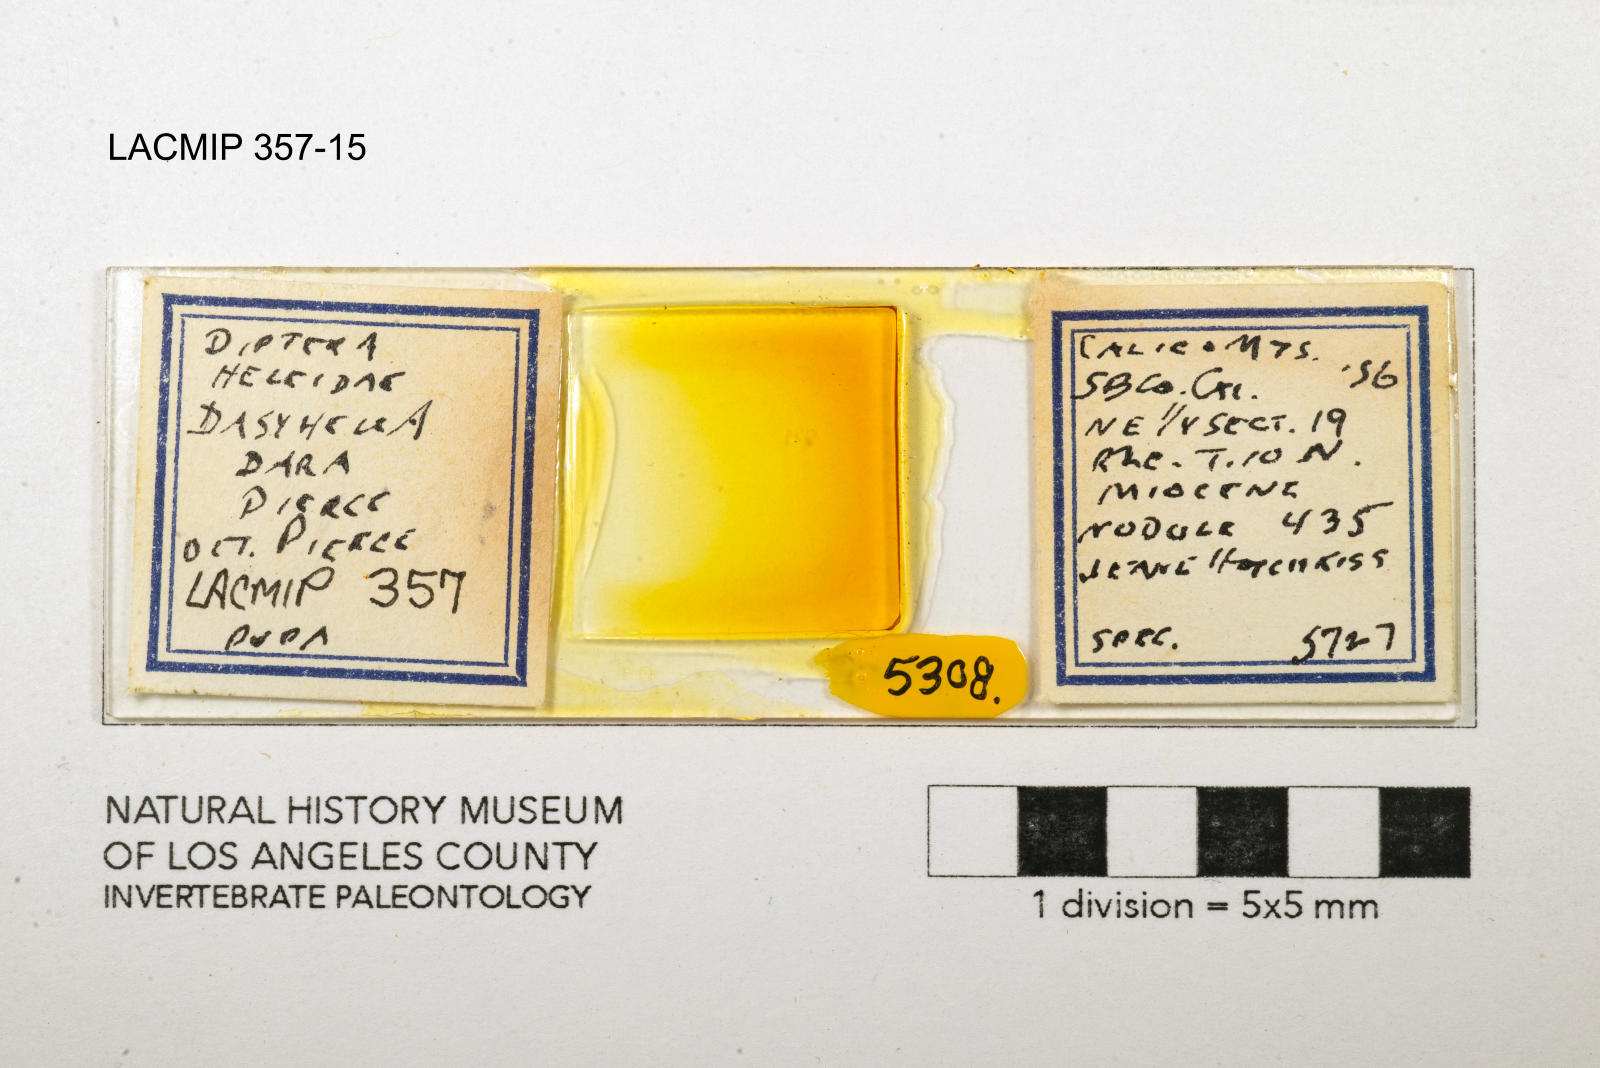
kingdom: Animalia
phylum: Arthropoda
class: Insecta
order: Diptera
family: Ceratopogonidae
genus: Dasyhelea
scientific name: Dasyhelea dara
